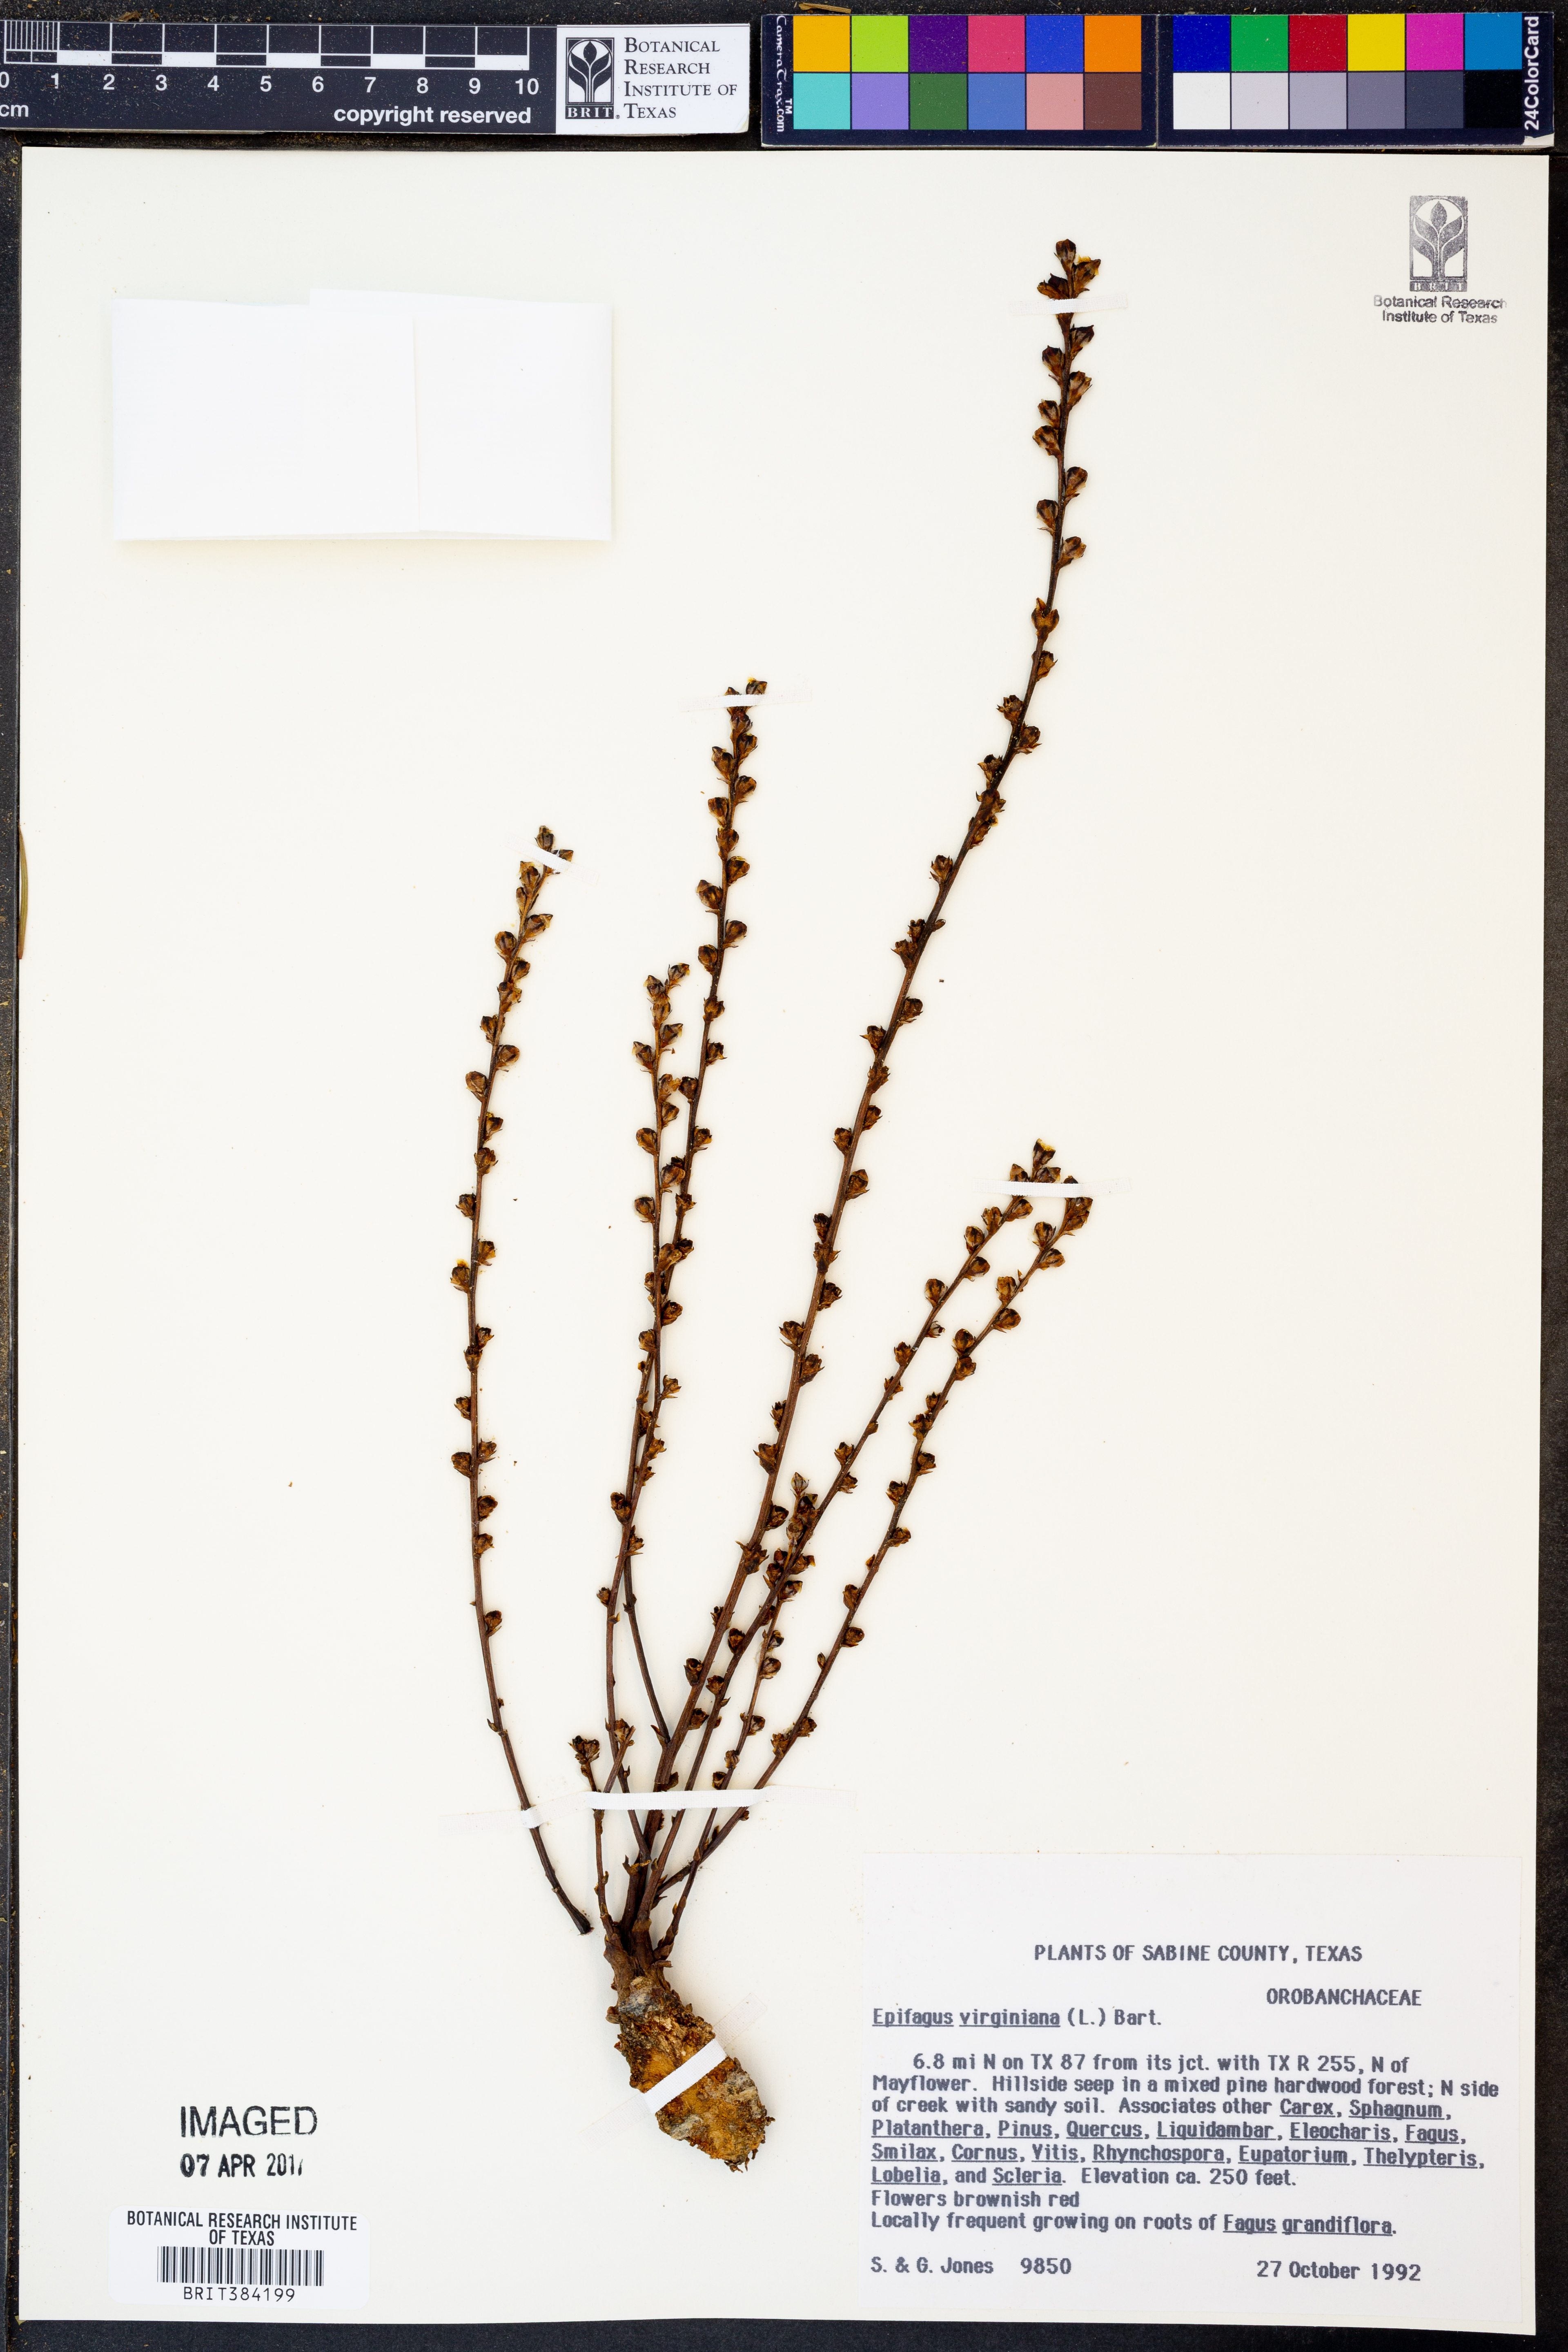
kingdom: Plantae
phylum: Tracheophyta
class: Magnoliopsida
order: Lamiales
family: Orobanchaceae
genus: Epifagus
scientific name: Epifagus virginiana
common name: Beechdrops
